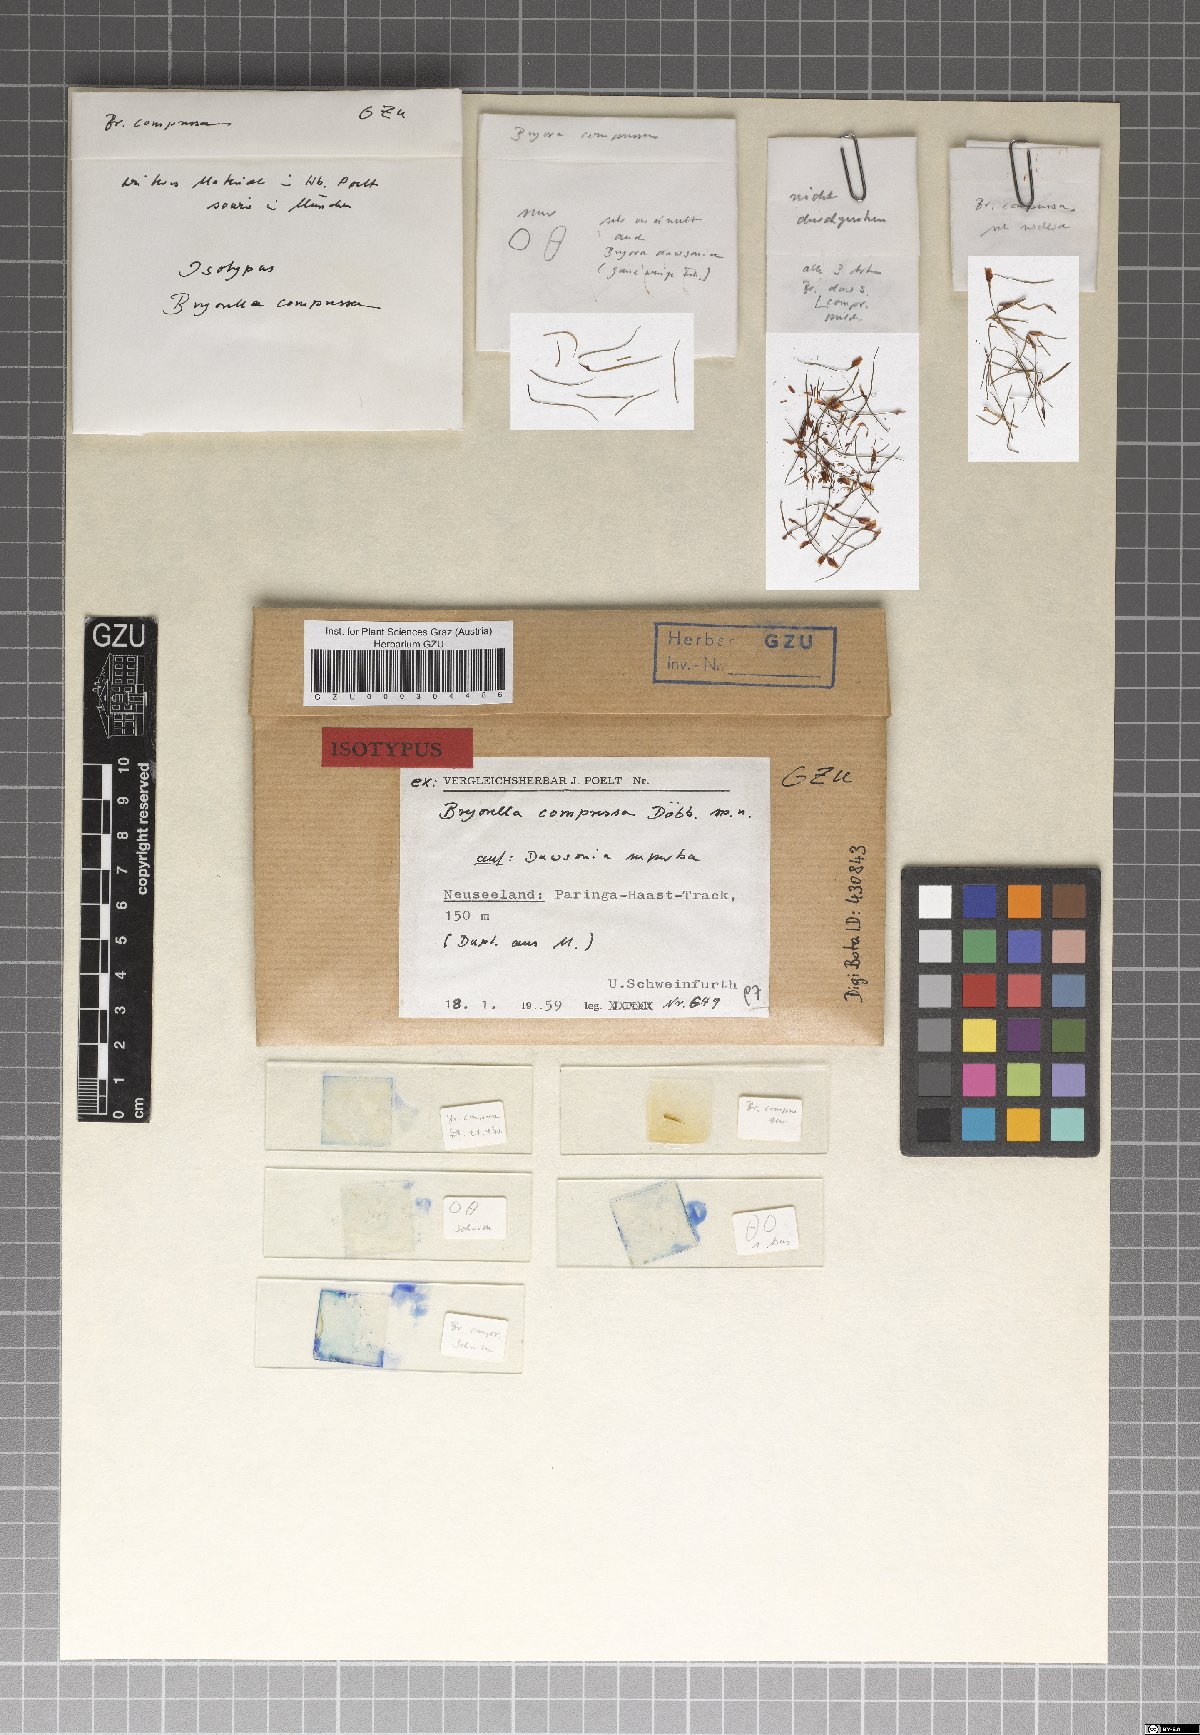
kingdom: Fungi
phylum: Ascomycota
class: Dothideomycetes
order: Dothideales
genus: Bryorella
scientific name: Bryorella compressa
